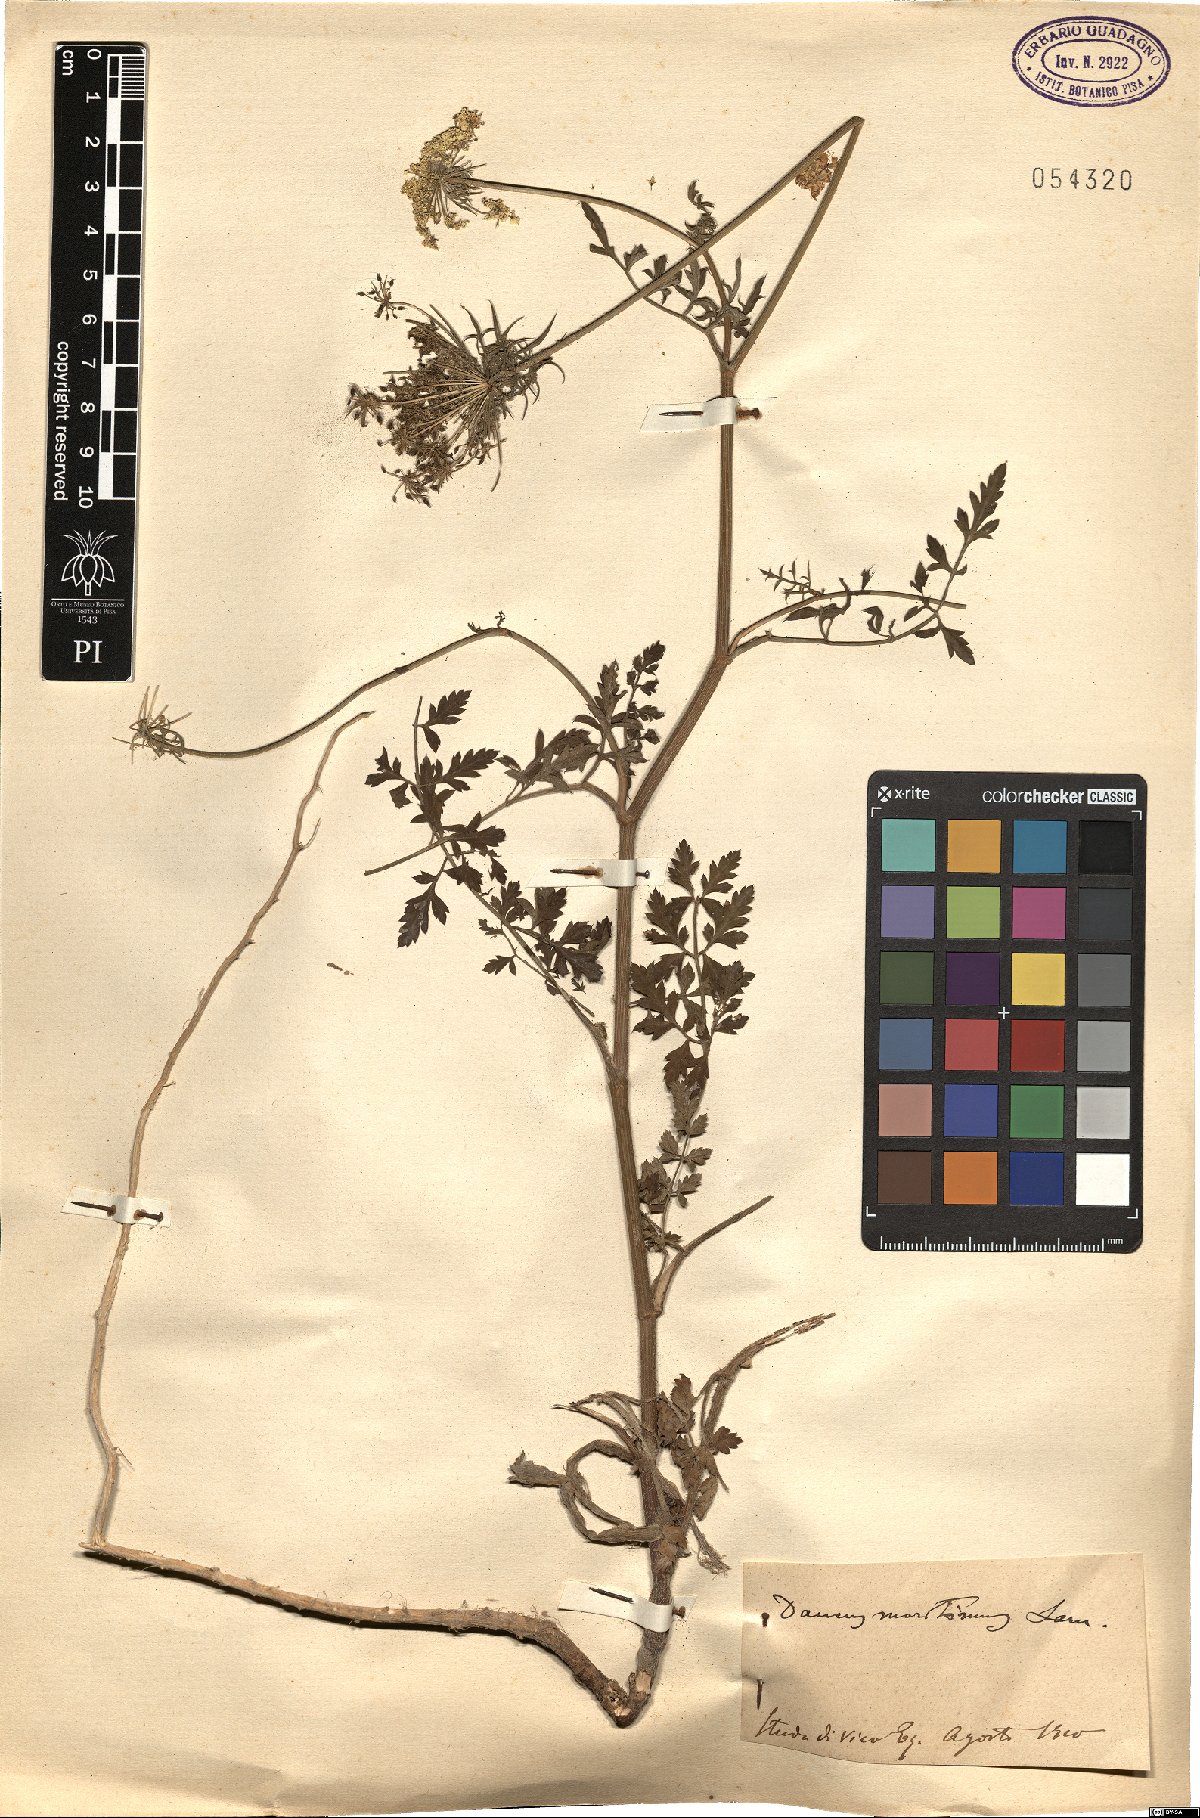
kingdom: Plantae
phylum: Tracheophyta
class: Magnoliopsida
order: Apiales
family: Apiaceae
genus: Daucus
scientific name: Daucus carota
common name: Wild carrot
